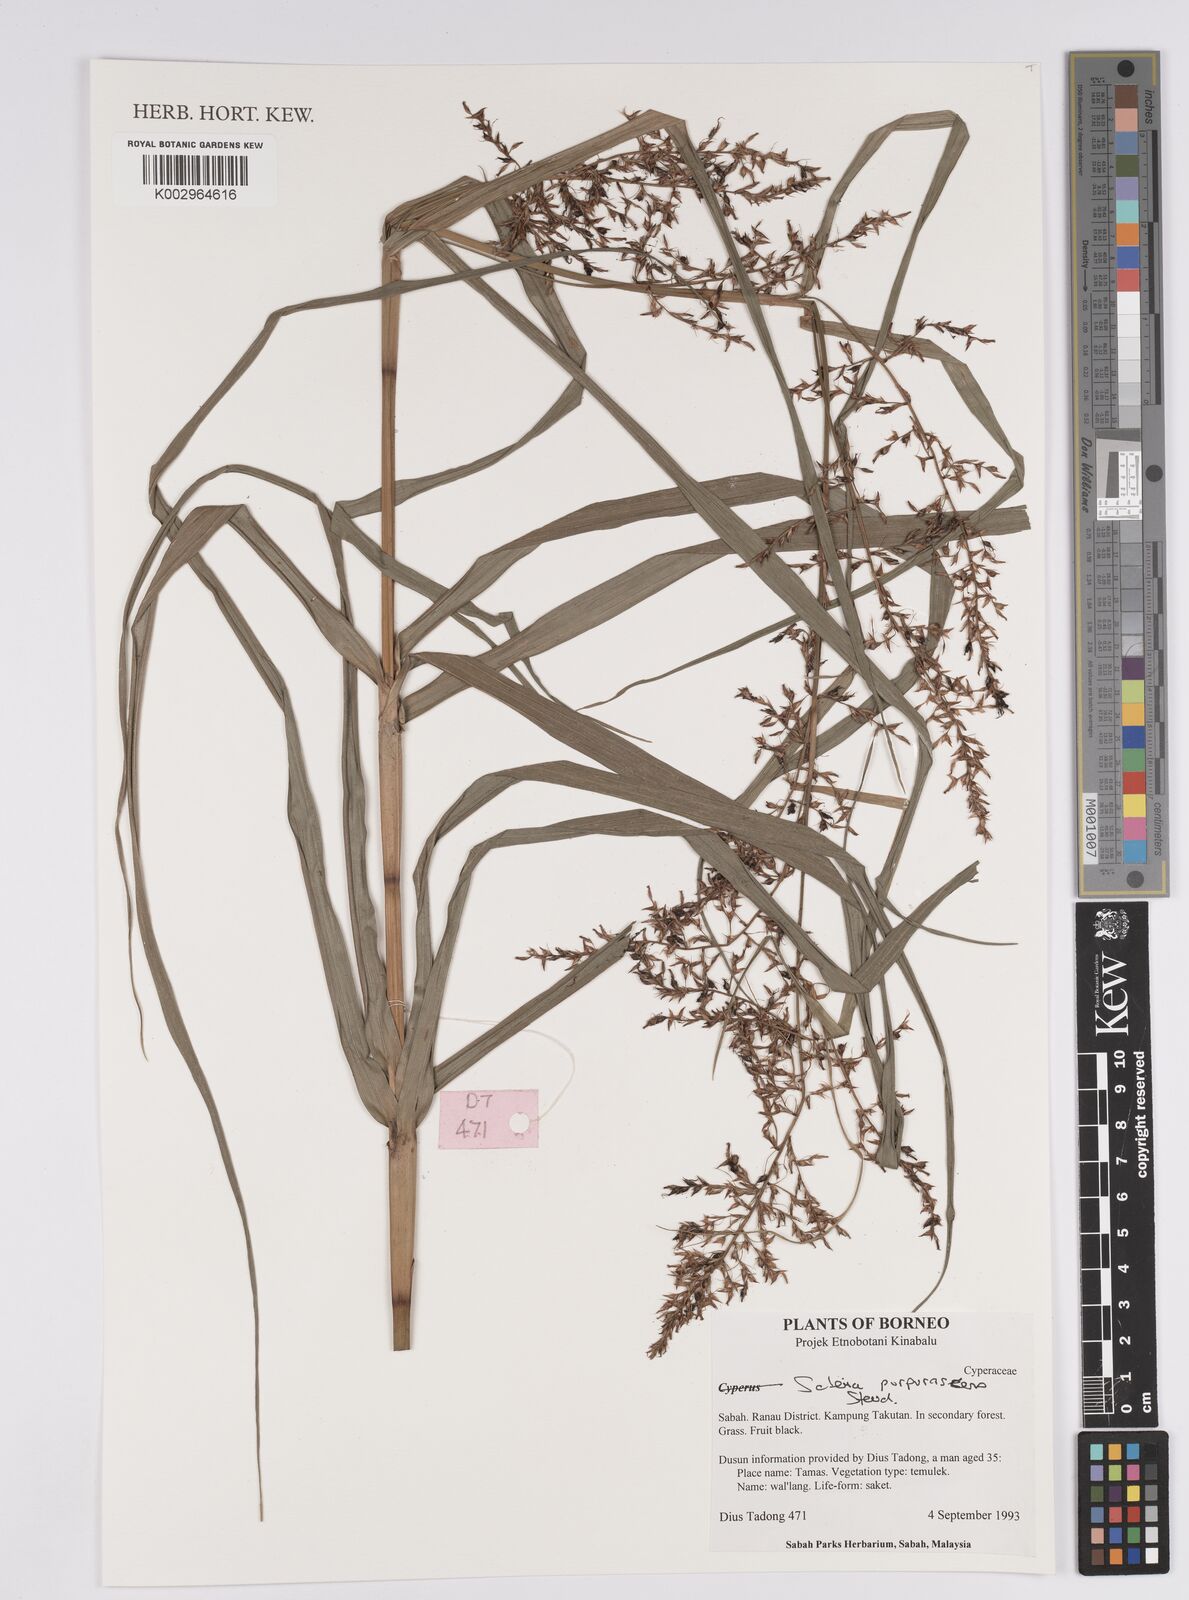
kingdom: Plantae
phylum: Tracheophyta
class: Liliopsida
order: Poales
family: Cyperaceae
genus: Scleria
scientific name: Scleria purpurascens
